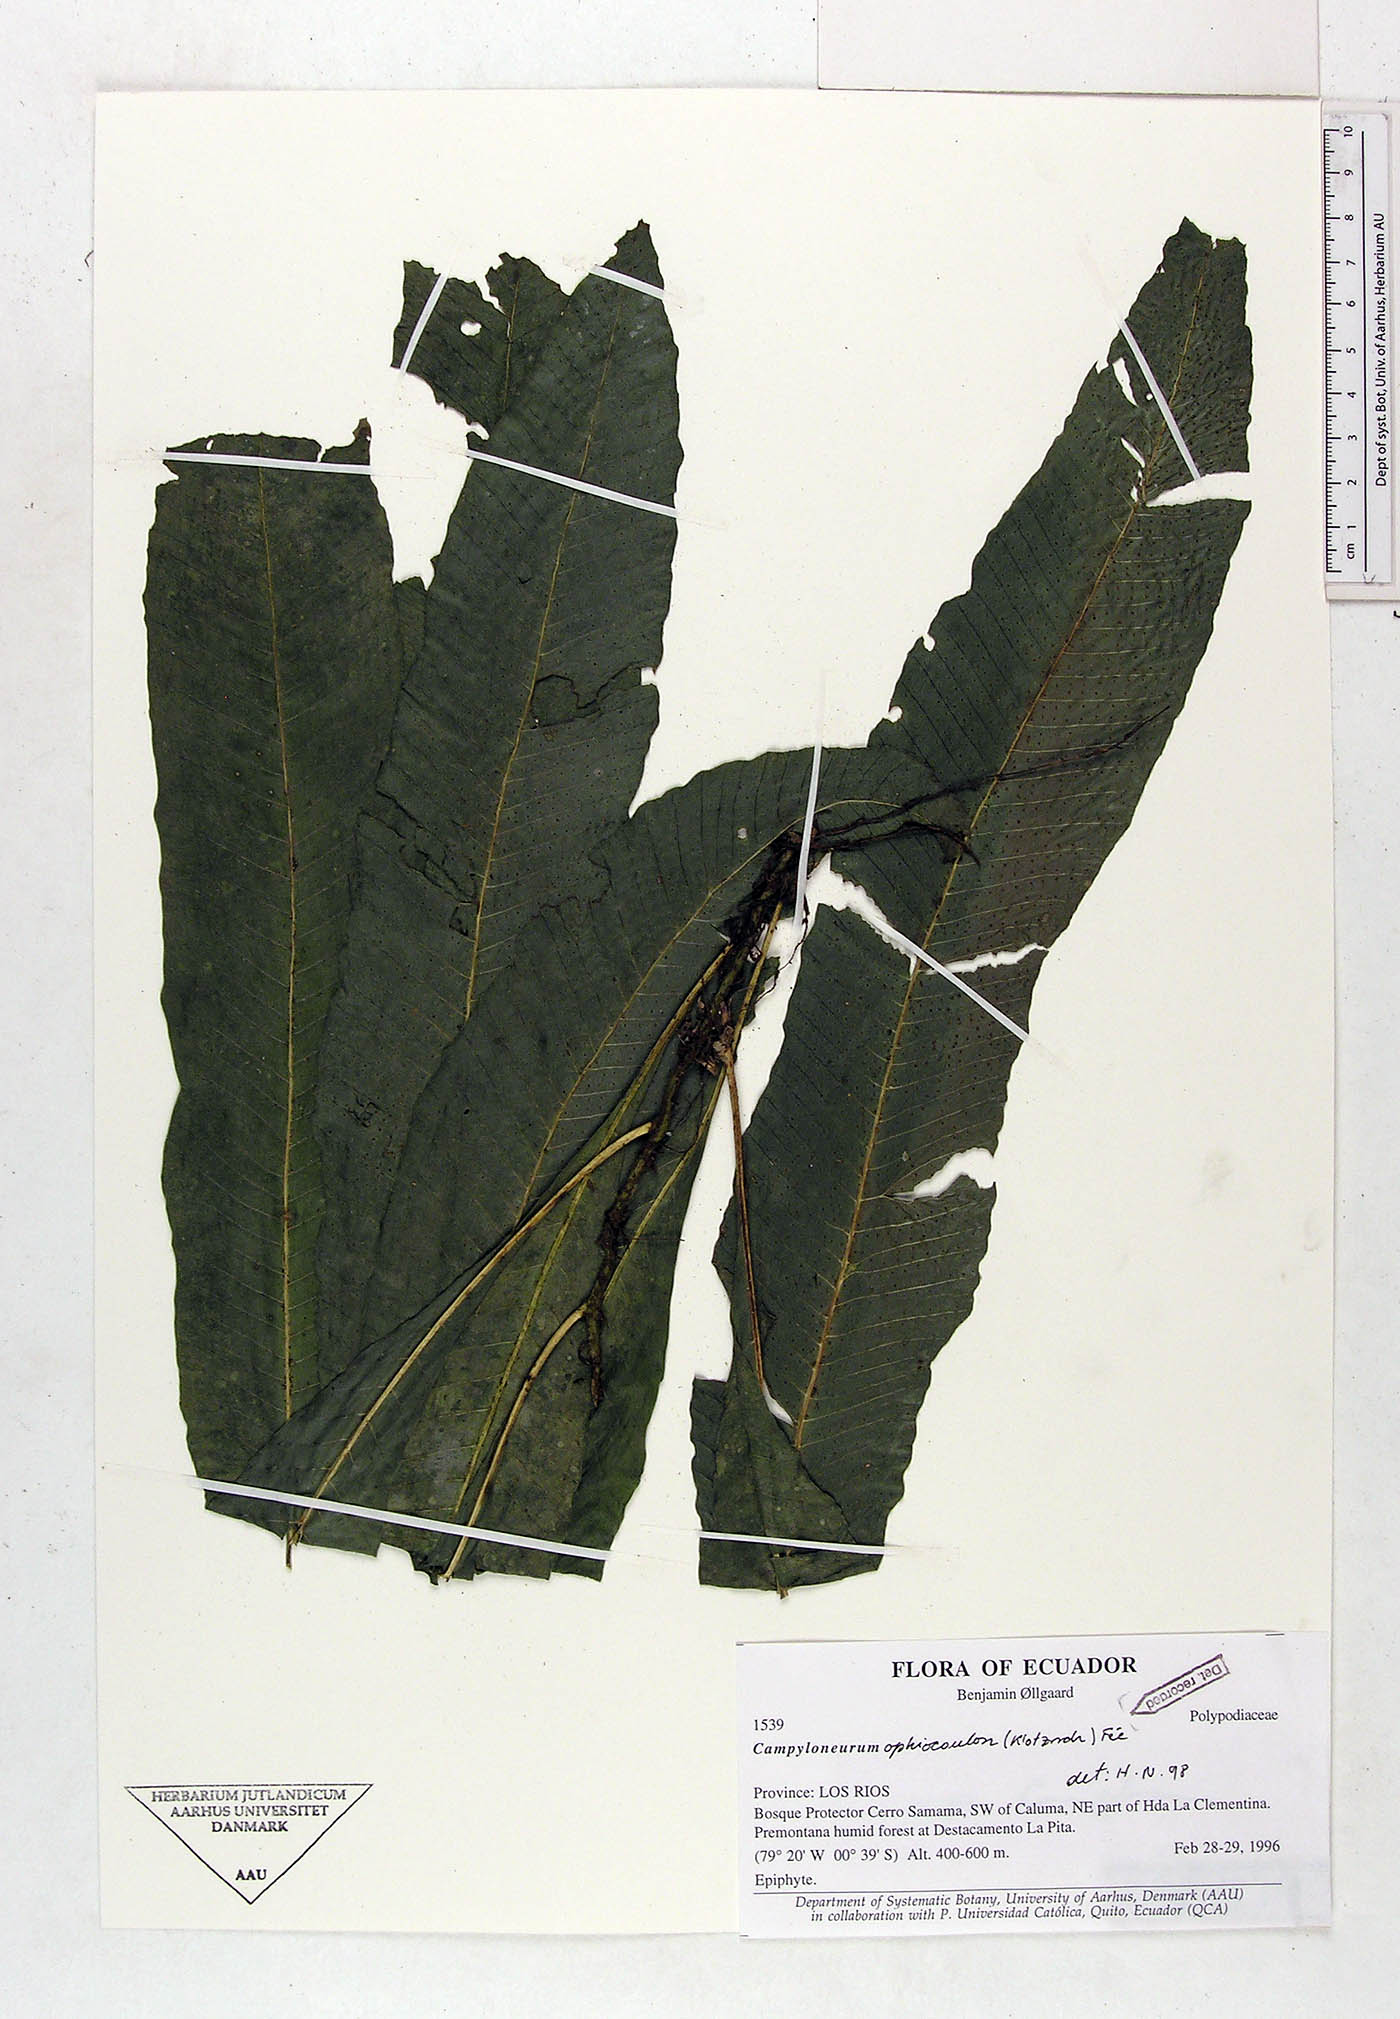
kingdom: Plantae
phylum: Tracheophyta
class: Polypodiopsida
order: Polypodiales
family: Polypodiaceae
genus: Campyloneurum
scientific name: Campyloneurum ophiocaulon
